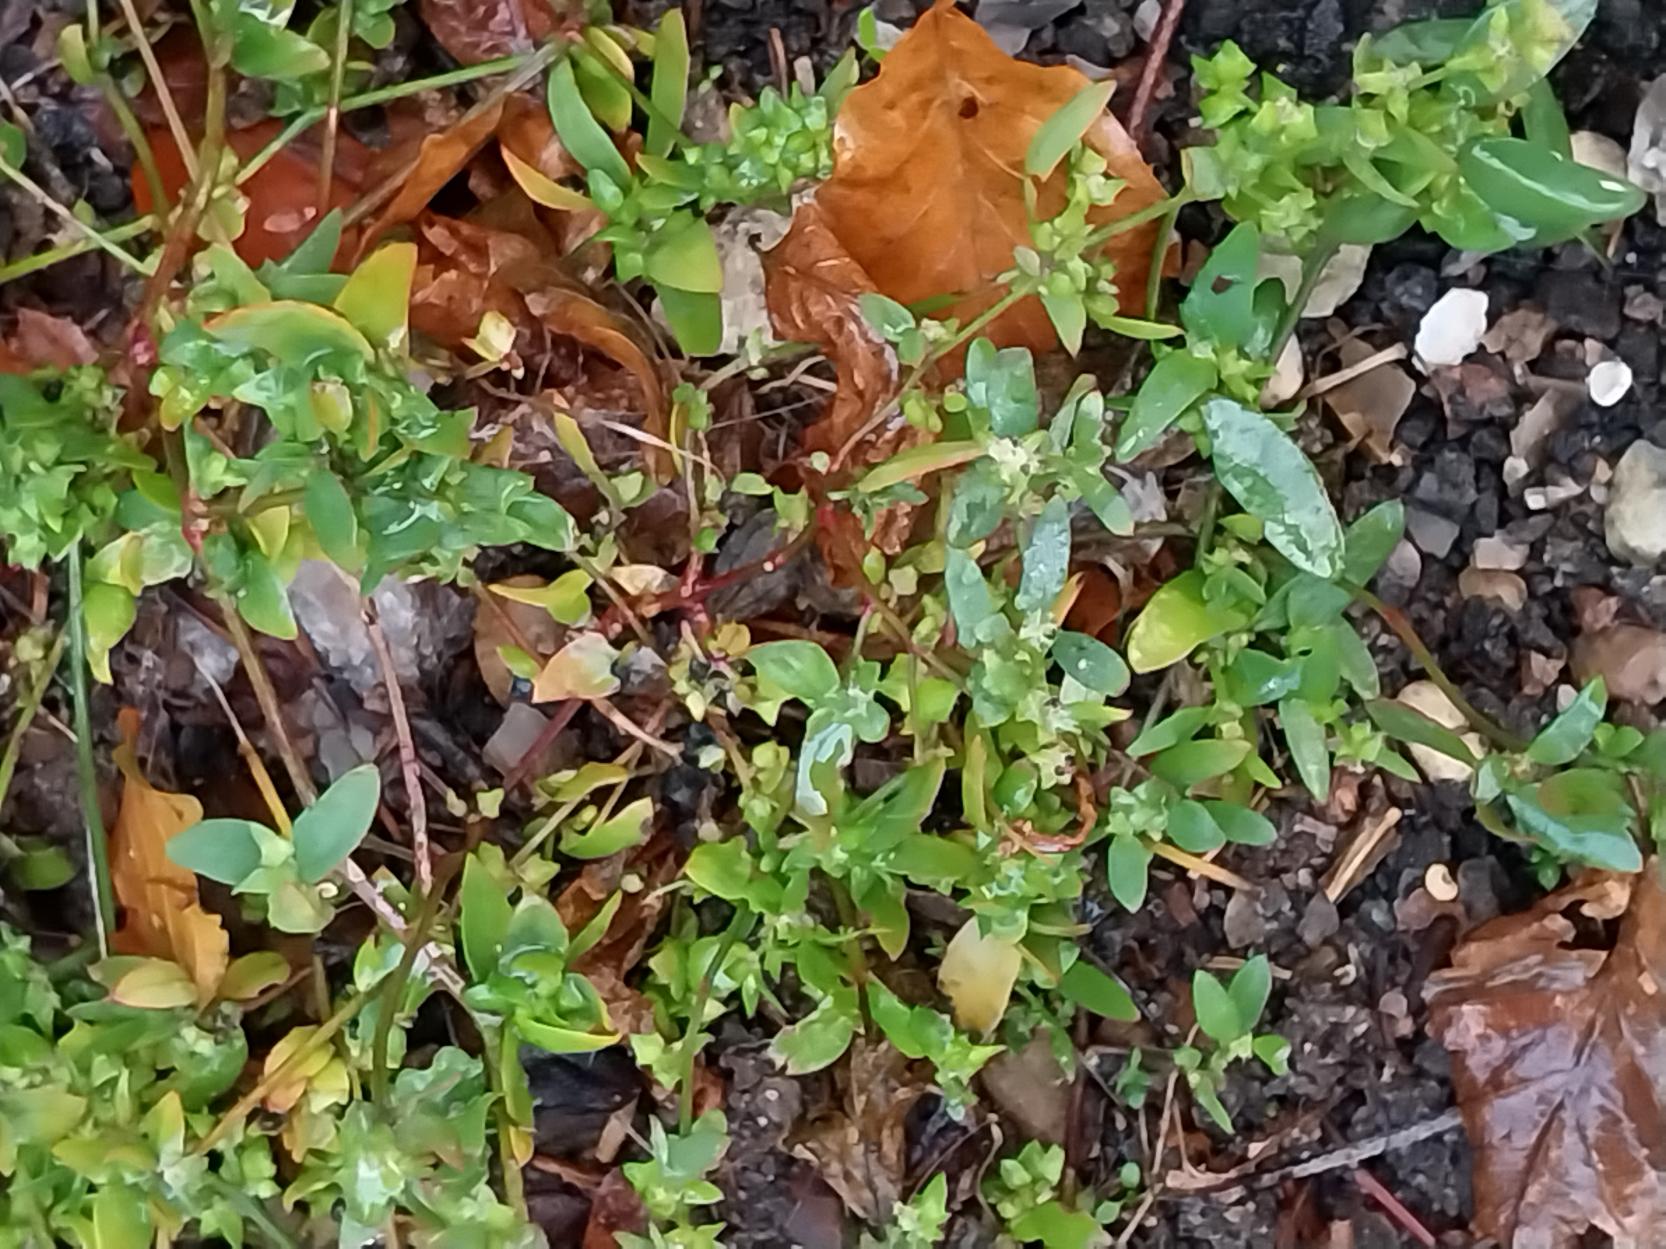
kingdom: Plantae
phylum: Tracheophyta
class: Magnoliopsida
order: Caryophyllales
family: Amaranthaceae
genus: Atriplex
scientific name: Atriplex patula
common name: Svine-mælde
